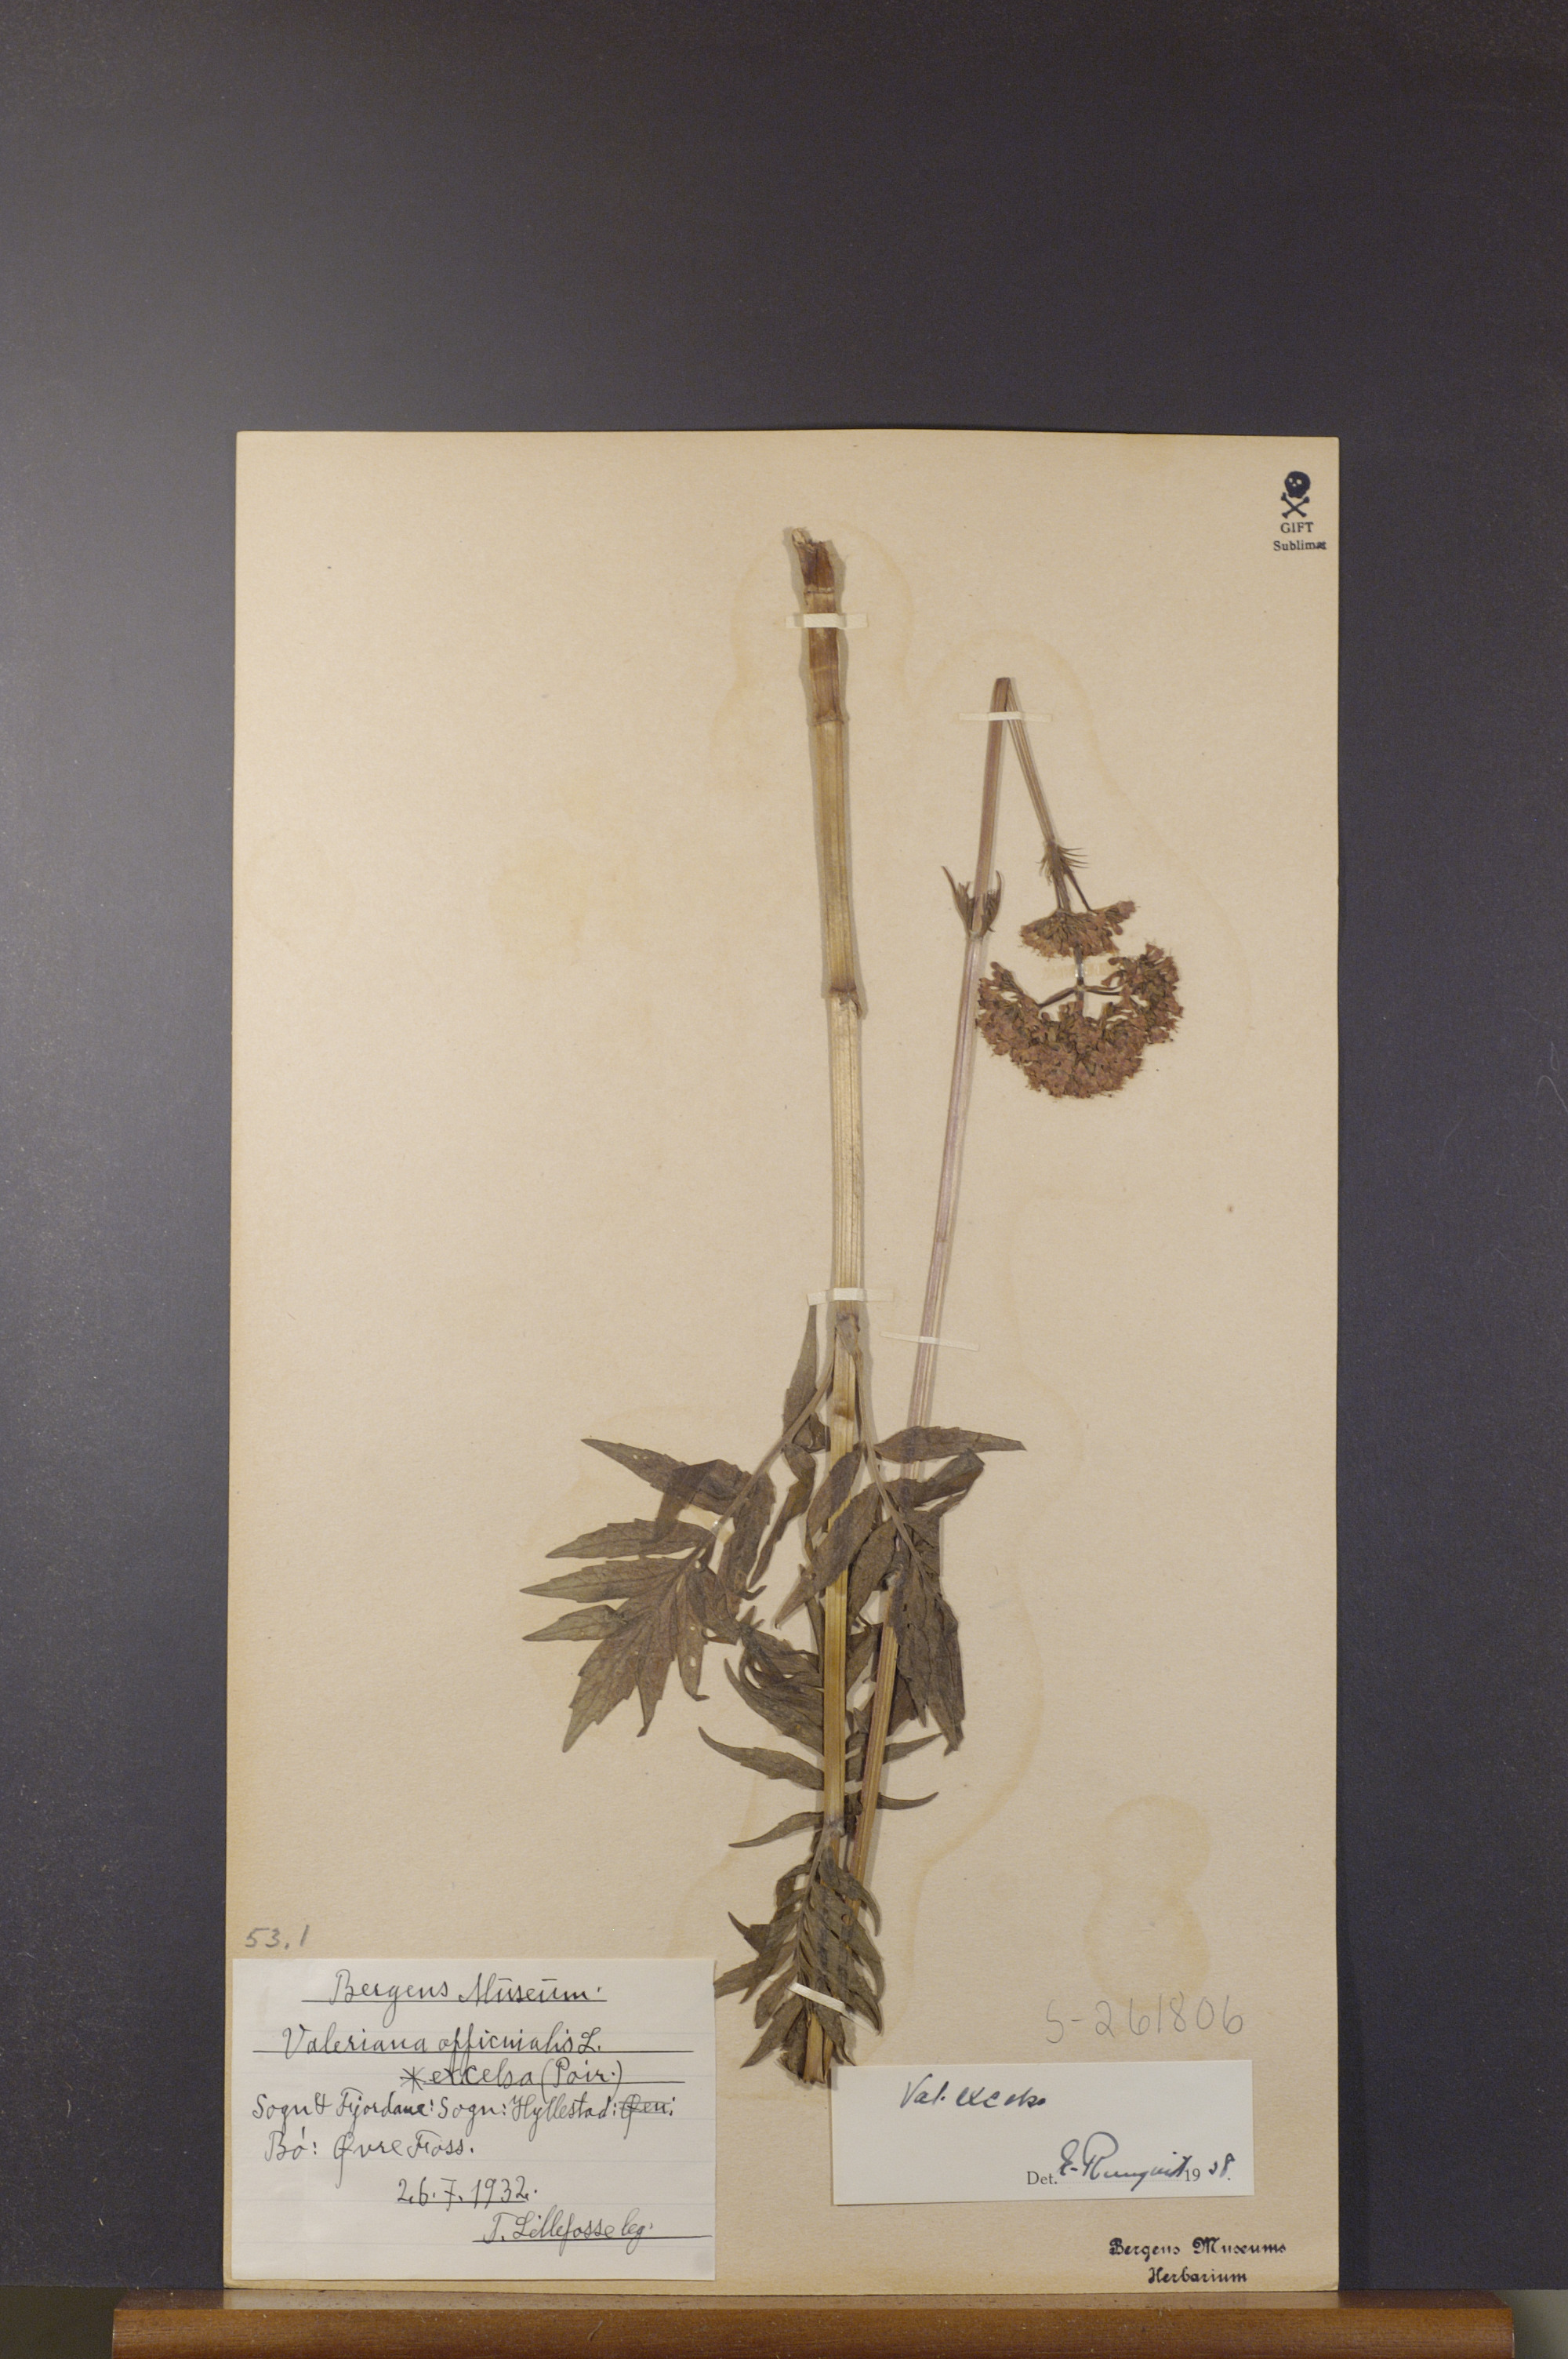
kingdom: Plantae
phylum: Tracheophyta
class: Magnoliopsida
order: Dipsacales
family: Caprifoliaceae
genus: Valeriana
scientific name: Valeriana sambucifolia
